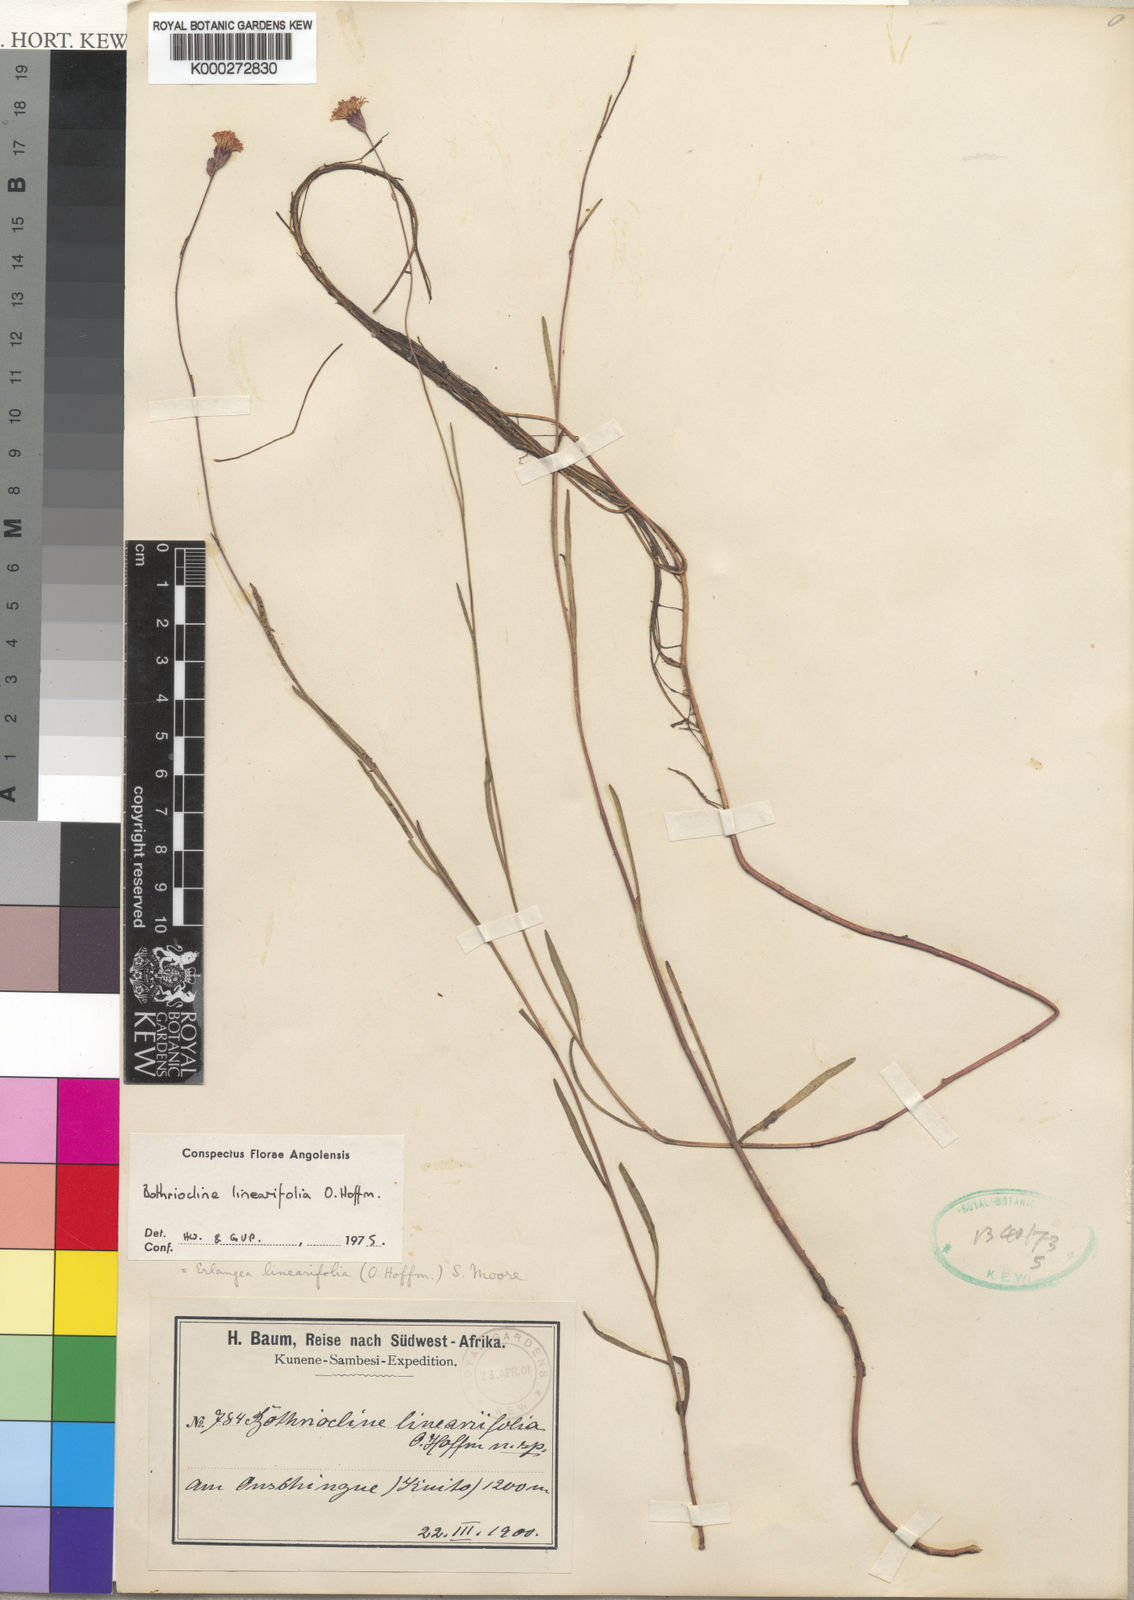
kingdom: Plantae
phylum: Tracheophyta
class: Magnoliopsida
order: Asterales
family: Asteraceae
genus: Erlangea
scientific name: Erlangea linearifolia
